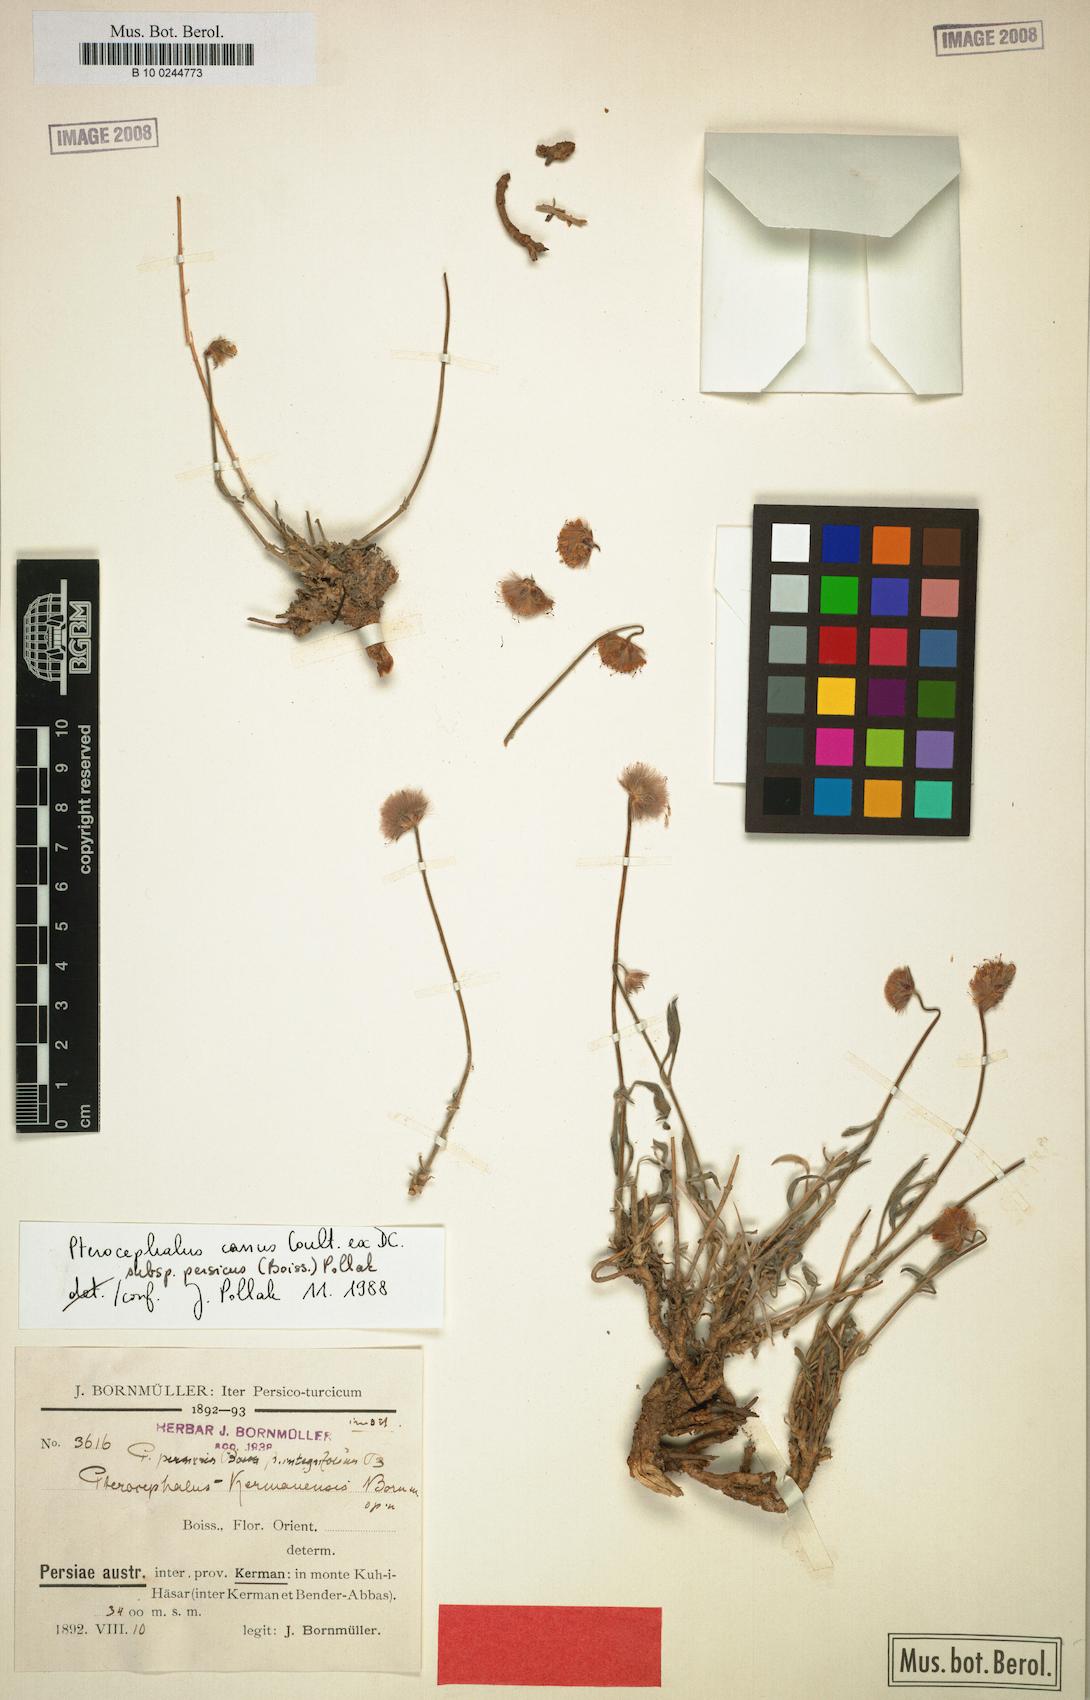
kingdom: Plantae
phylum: Tracheophyta
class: Magnoliopsida
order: Dipsacales
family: Caprifoliaceae
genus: Pterocephalus
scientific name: Pterocephalus canus
